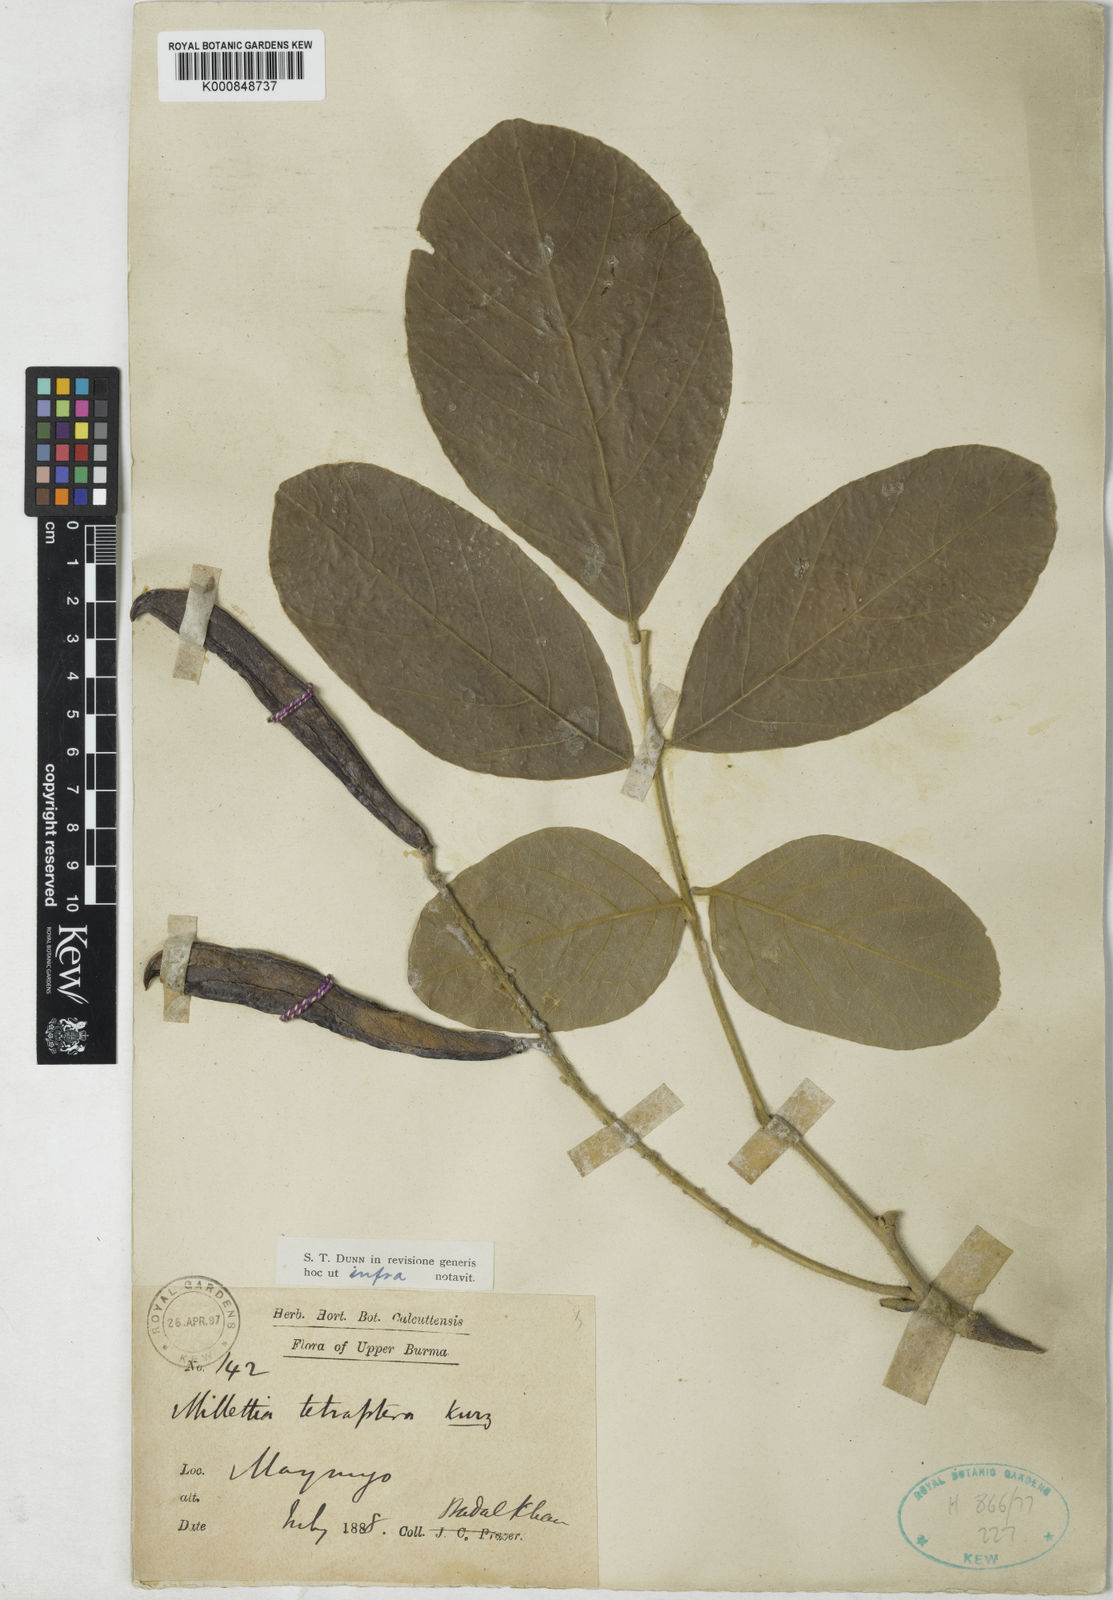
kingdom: Plantae
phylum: Tracheophyta
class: Magnoliopsida
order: Fabales
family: Fabaceae
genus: Millettia
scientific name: Millettia tetraptera
